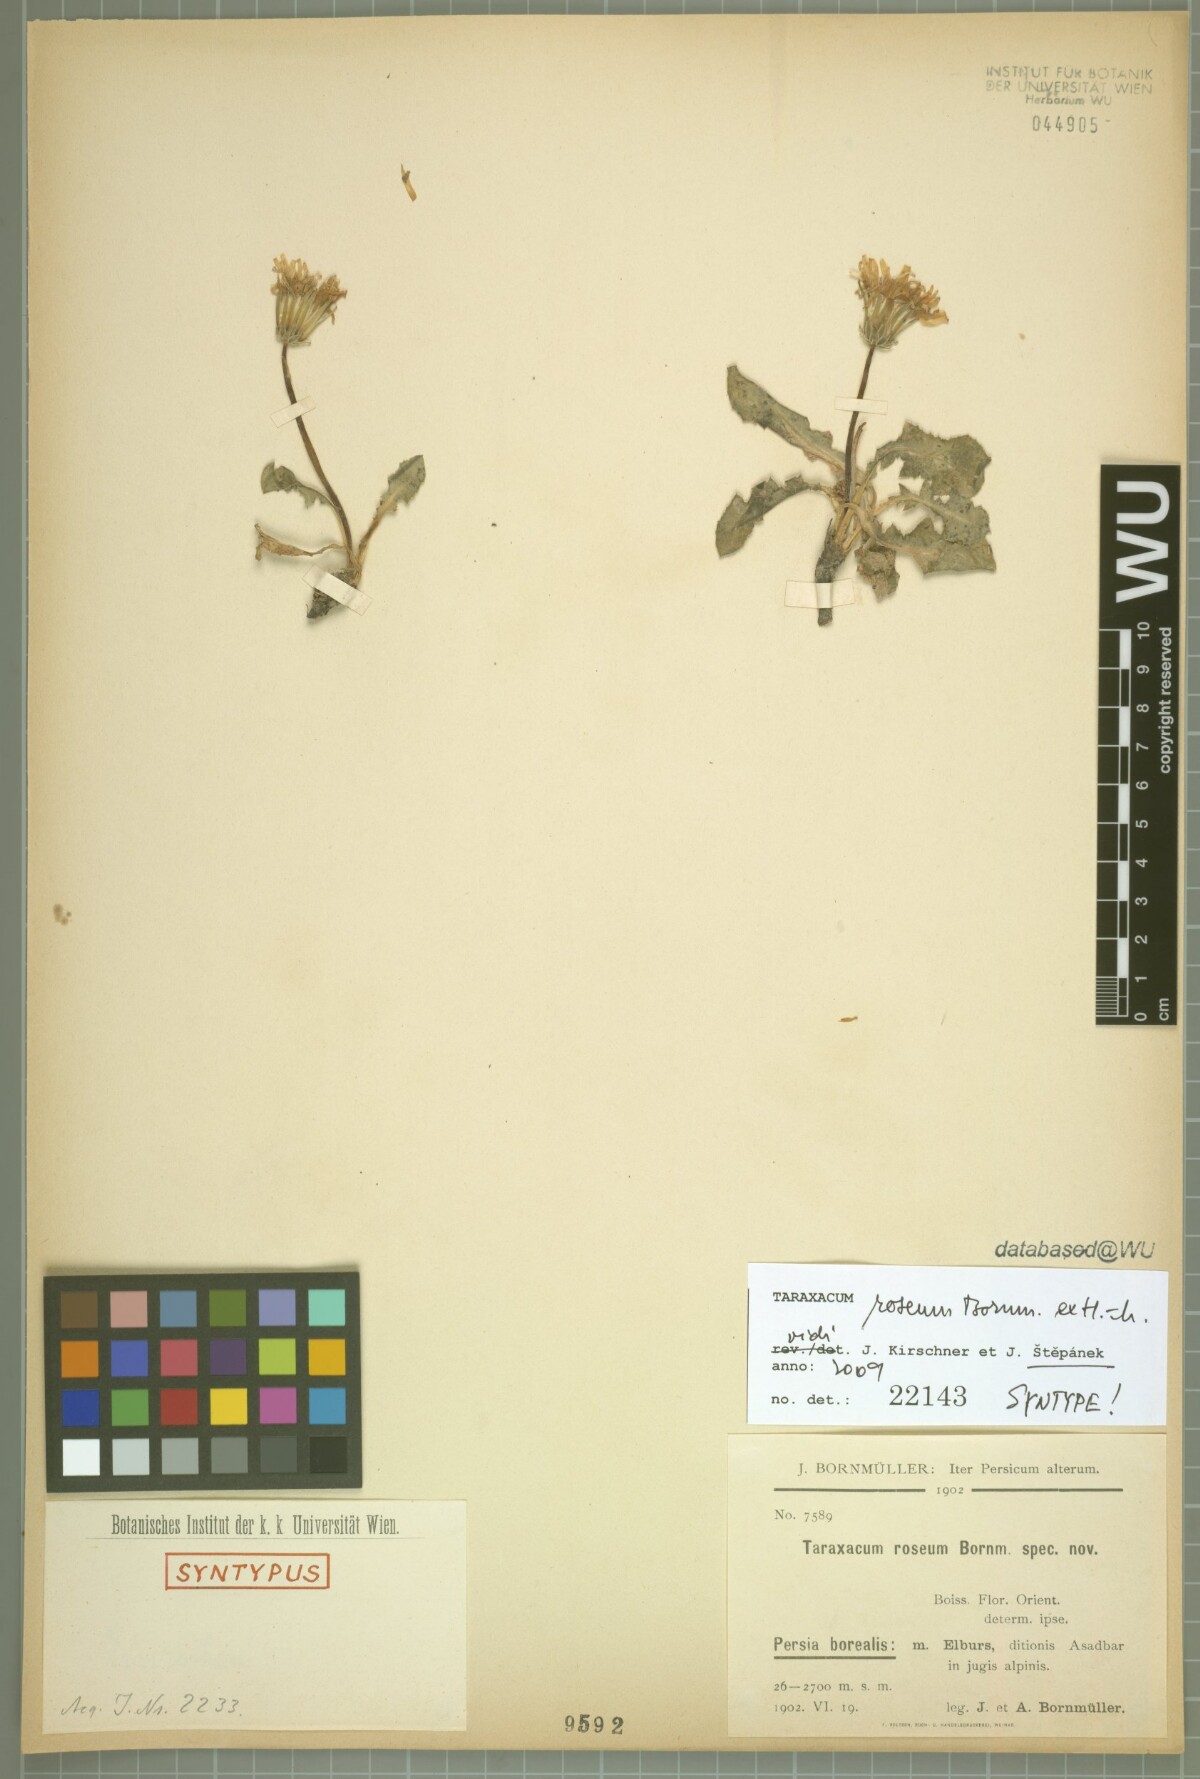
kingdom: Plantae
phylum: Tracheophyta
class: Magnoliopsida
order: Asterales
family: Asteraceae
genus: Taraxacum
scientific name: Taraxacum roseum
